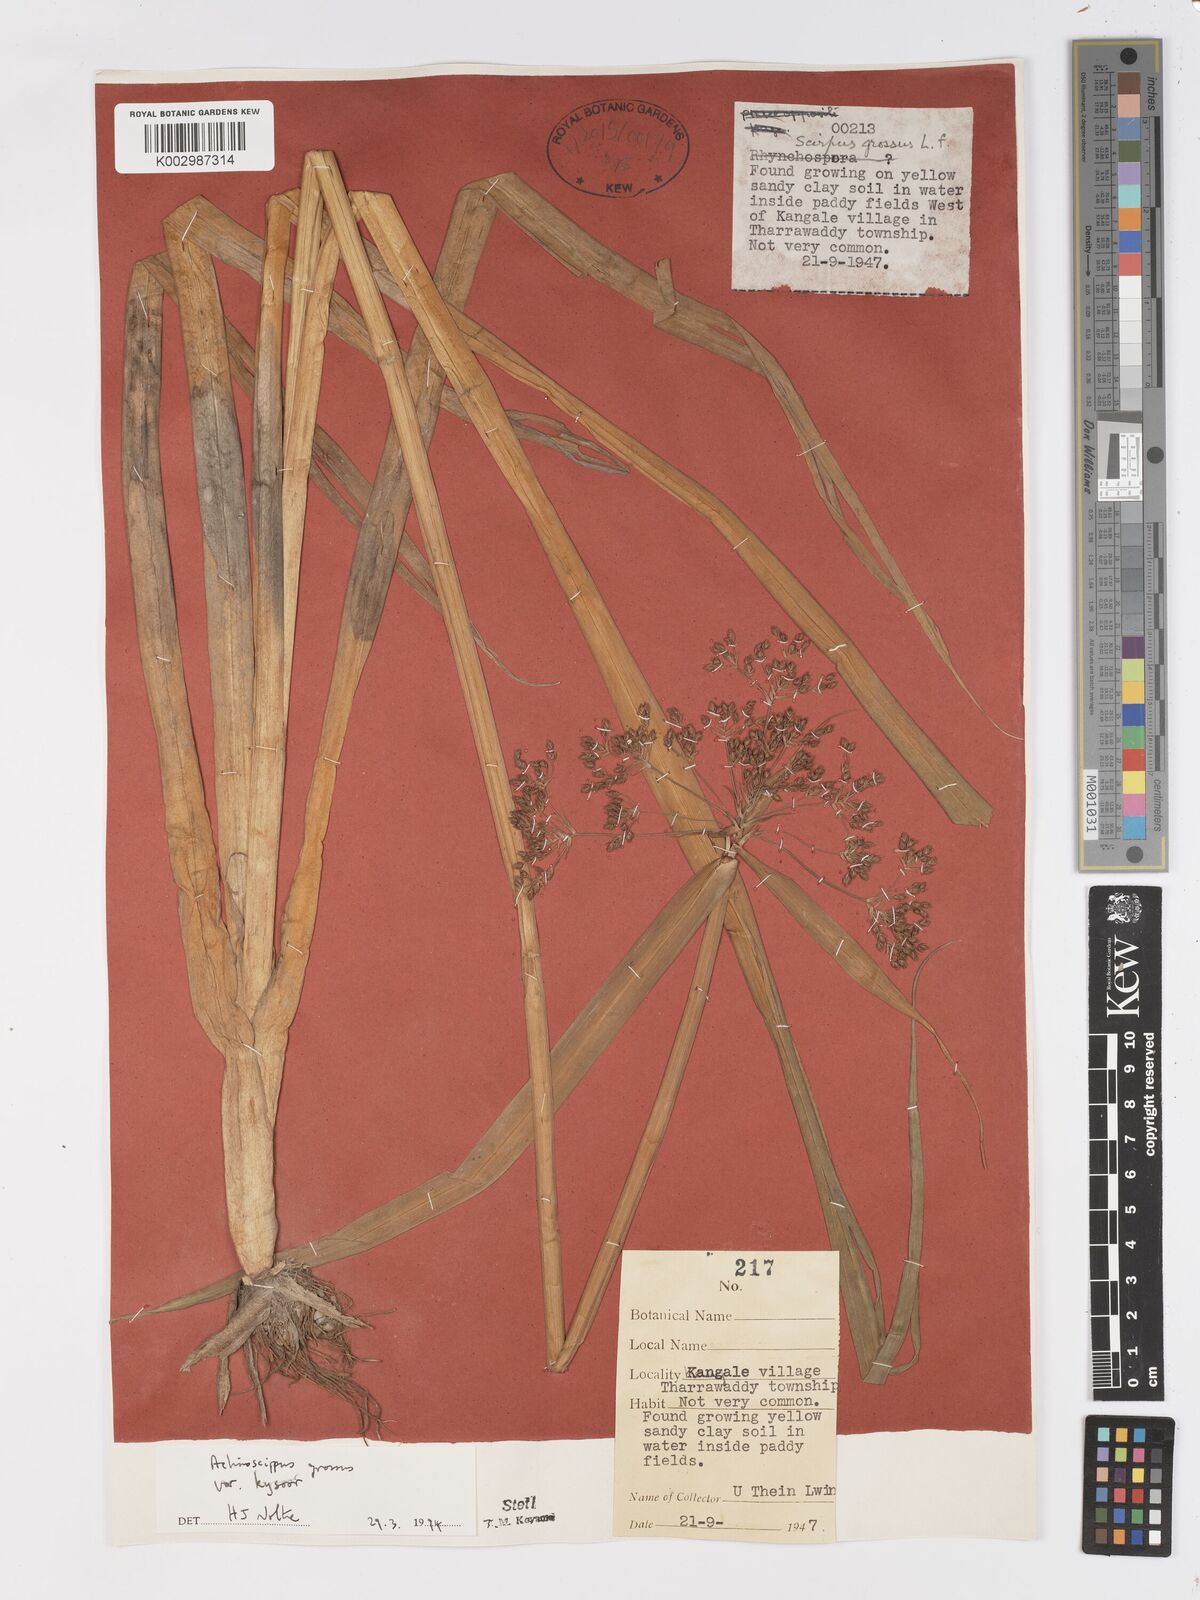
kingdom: Plantae
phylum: Tracheophyta
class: Liliopsida
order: Poales
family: Cyperaceae
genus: Actinoscirpus
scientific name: Actinoscirpus grossus
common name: Giant bur rush
